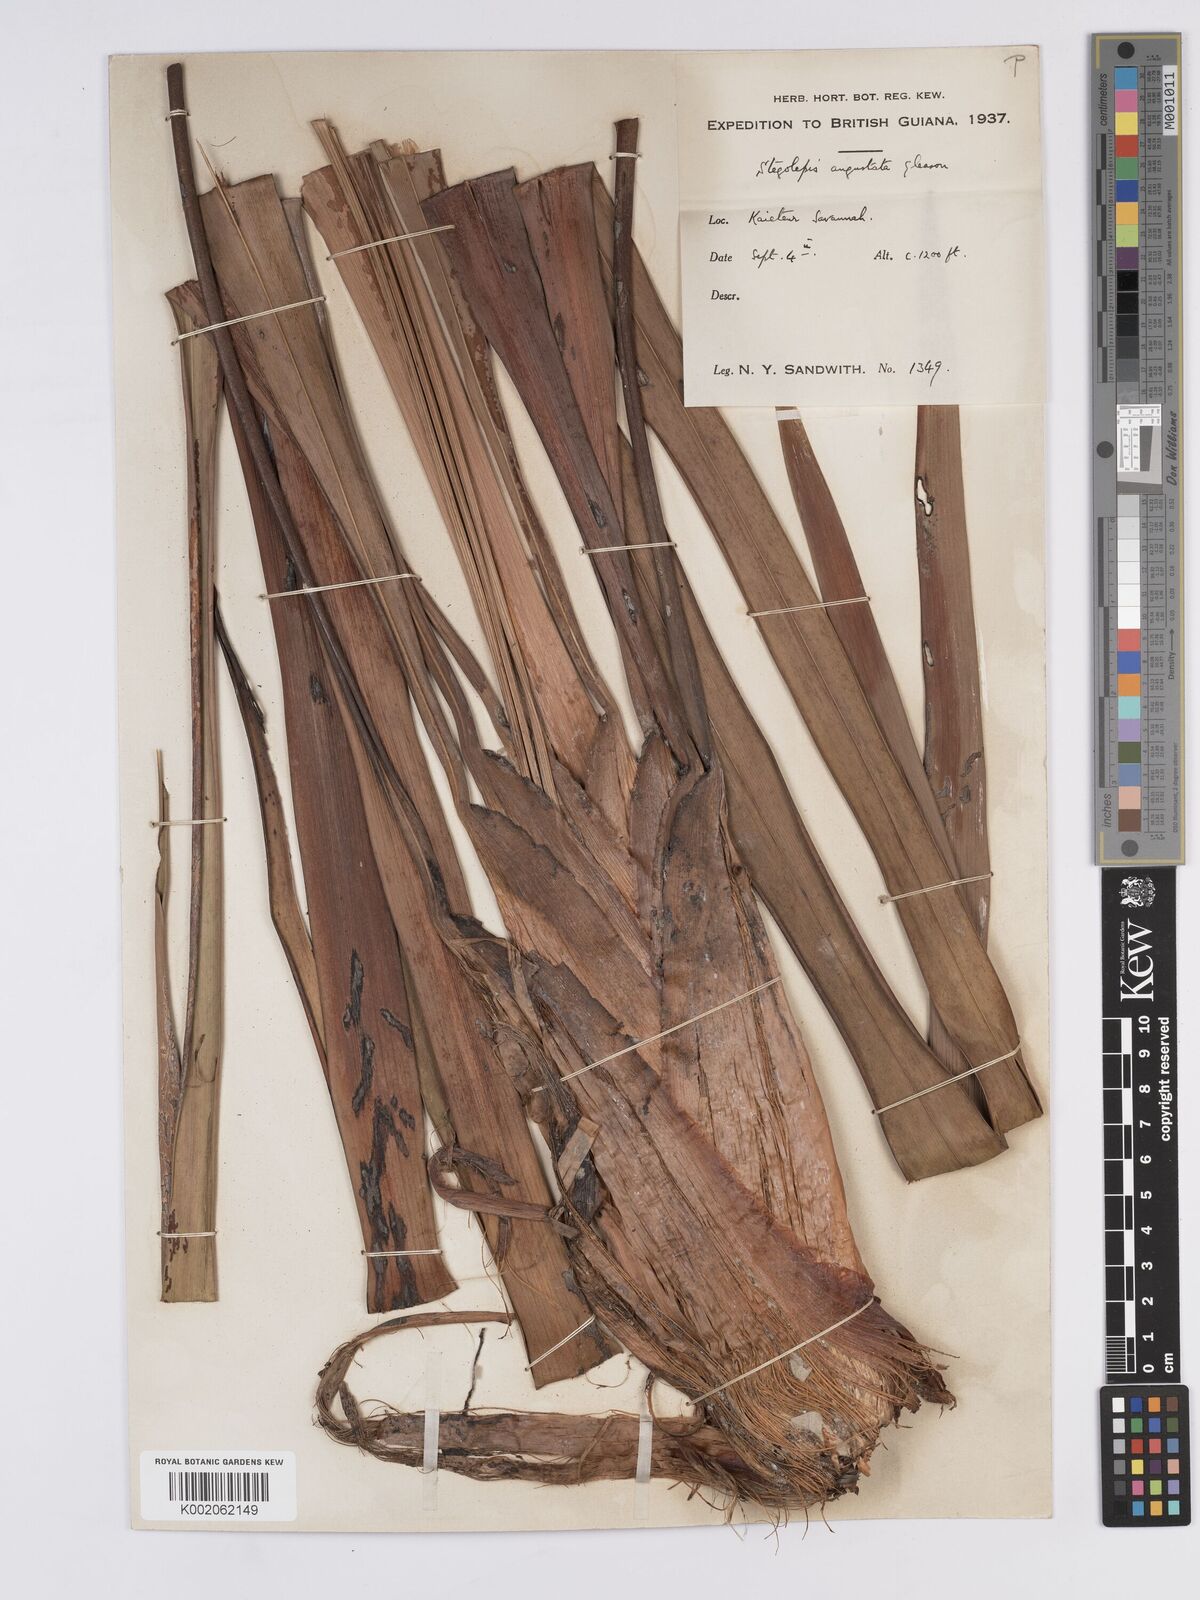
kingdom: Plantae
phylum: Tracheophyta
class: Liliopsida
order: Poales
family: Rapateaceae
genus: Stegolepis
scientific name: Stegolepis angustata
